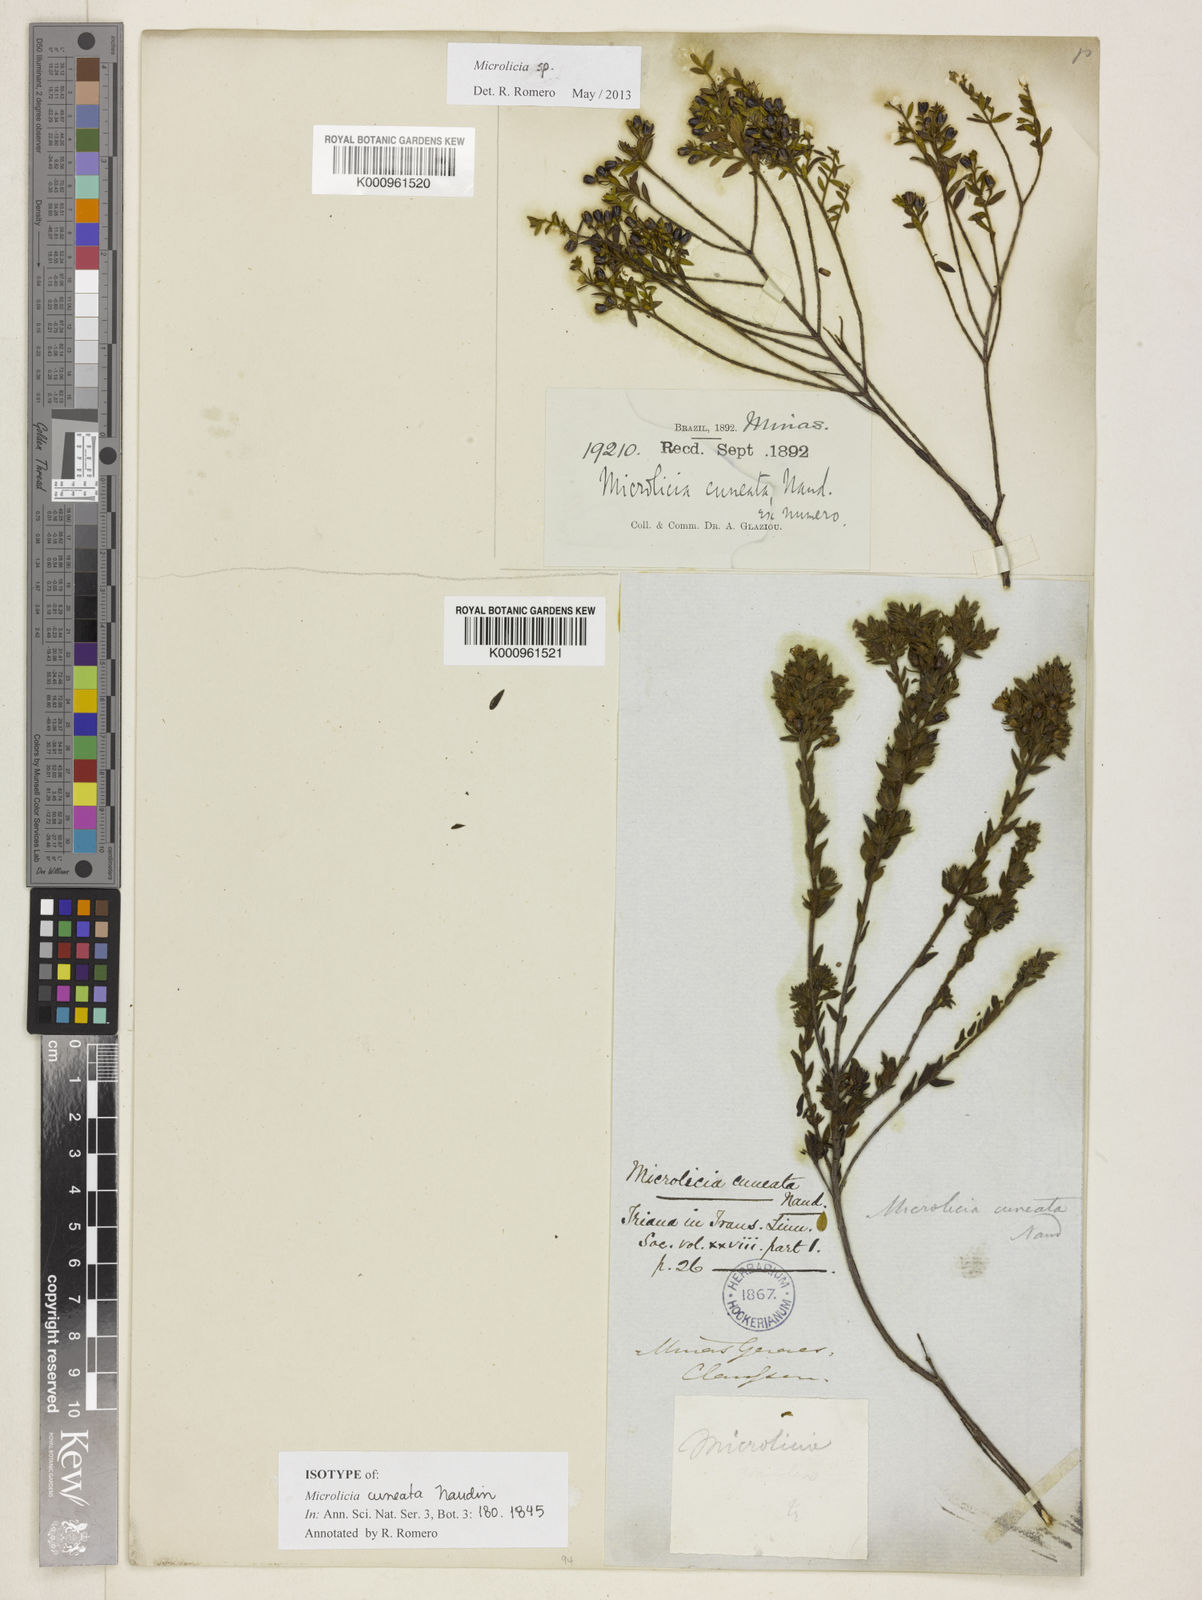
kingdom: Plantae
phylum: Tracheophyta
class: Magnoliopsida
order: Myrtales
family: Melastomataceae
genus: Microlicia
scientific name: Microlicia cuneata
